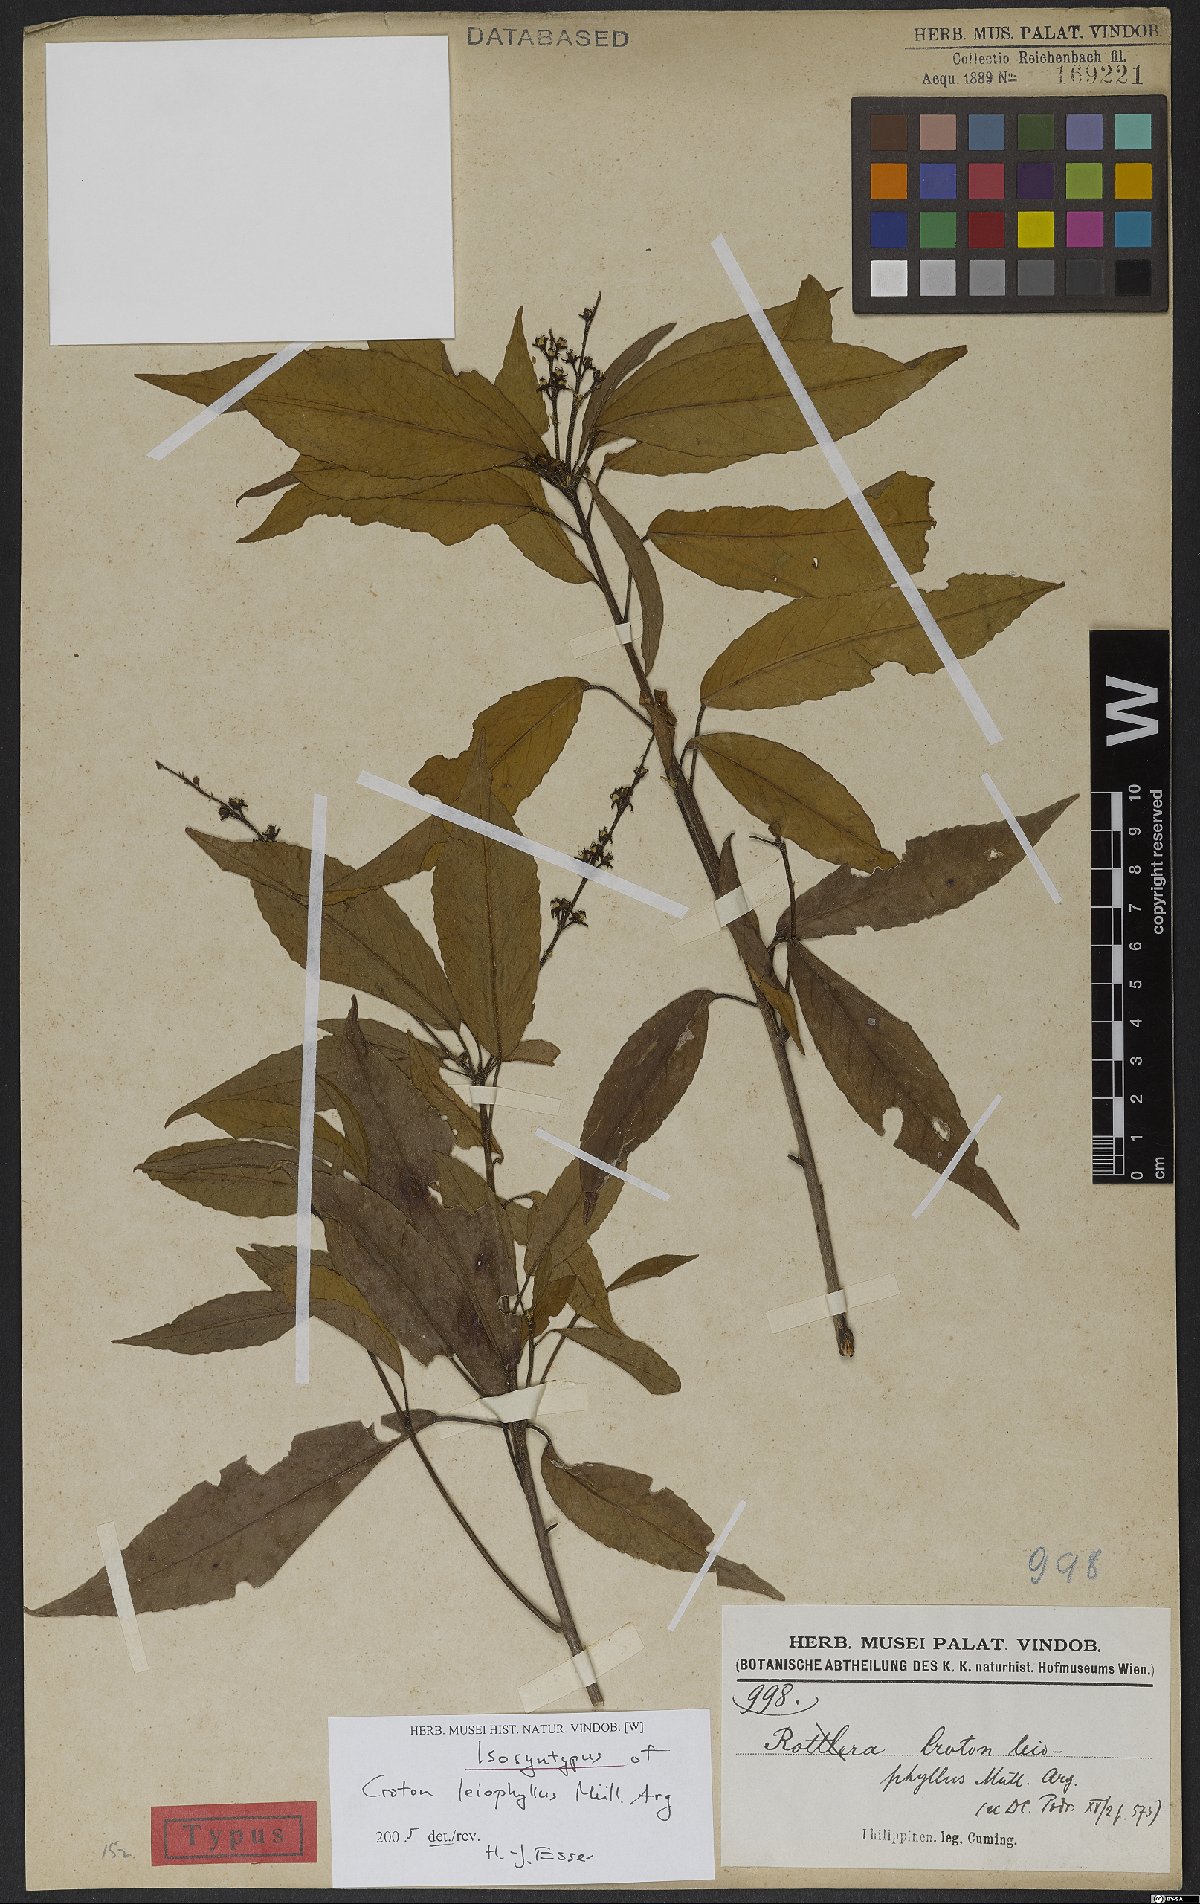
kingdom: Plantae
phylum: Tracheophyta
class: Magnoliopsida
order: Malpighiales
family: Euphorbiaceae
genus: Croton
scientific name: Croton leiophyllus
